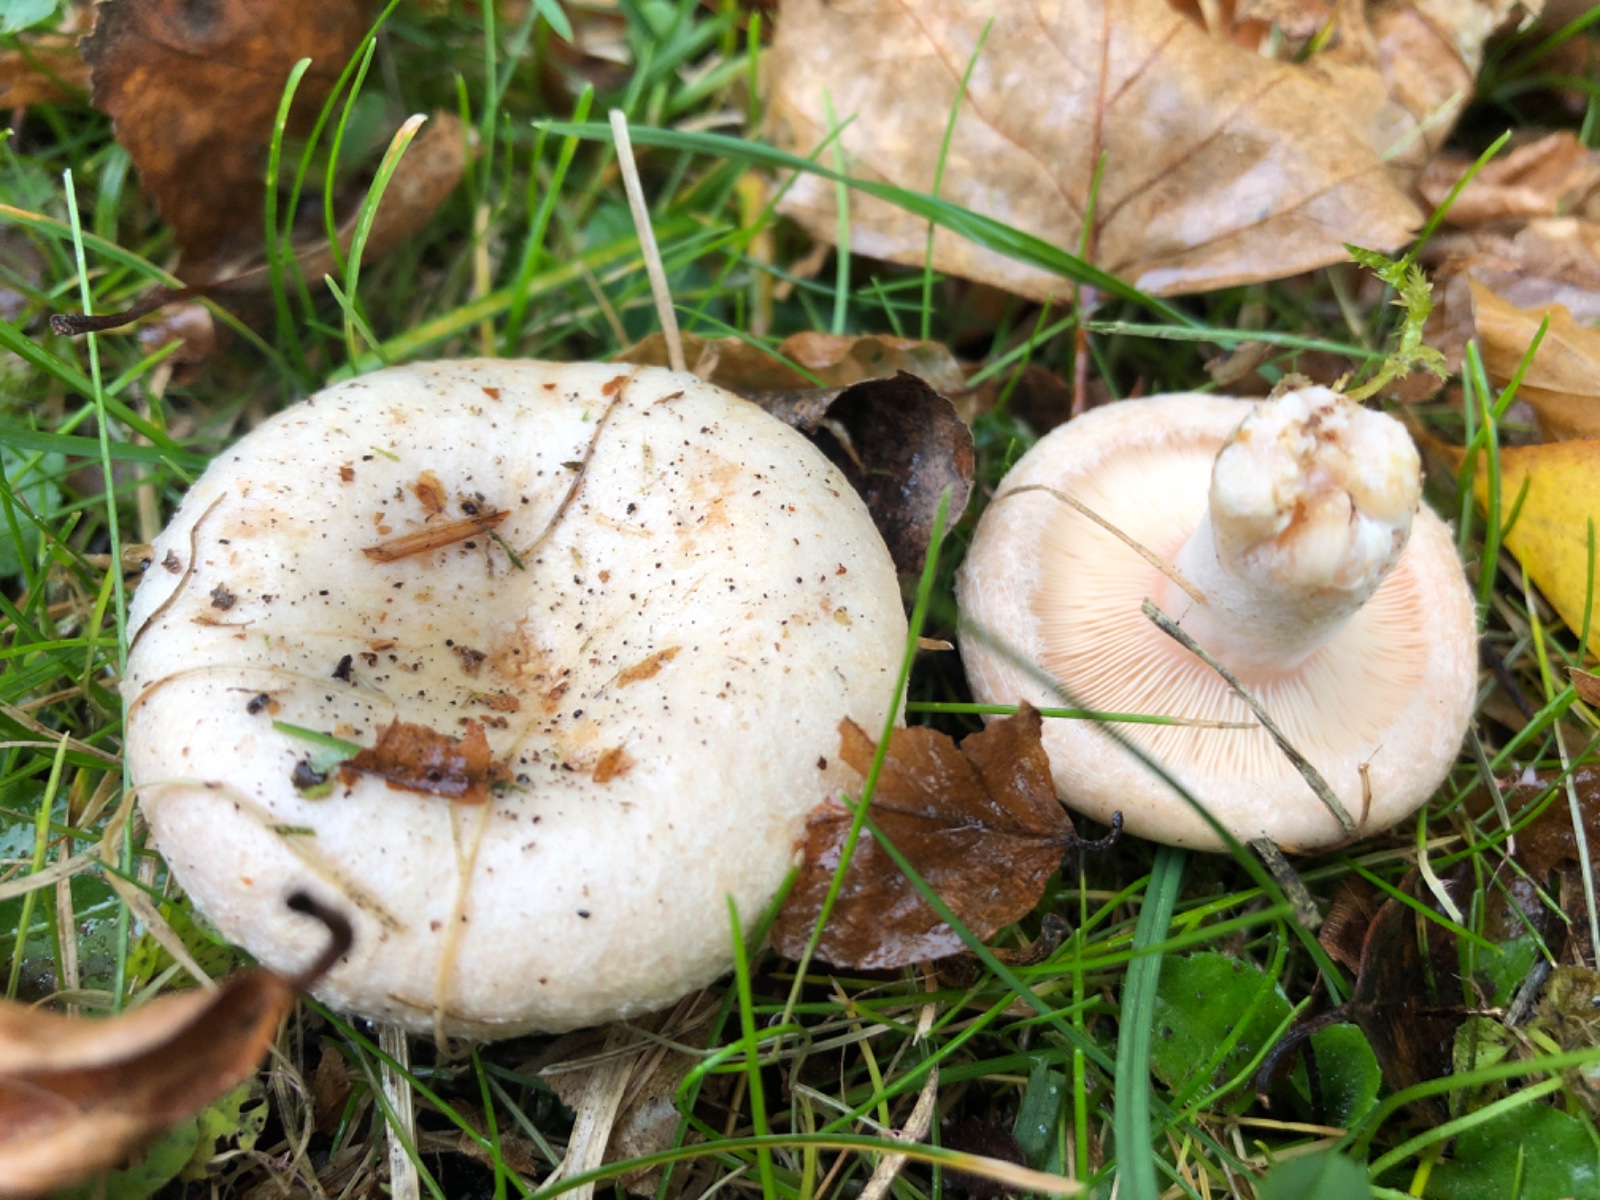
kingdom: Fungi
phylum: Basidiomycota
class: Agaricomycetes
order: Russulales
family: Russulaceae
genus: Lactarius
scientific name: Lactarius pubescens
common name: dunet mælkehat
